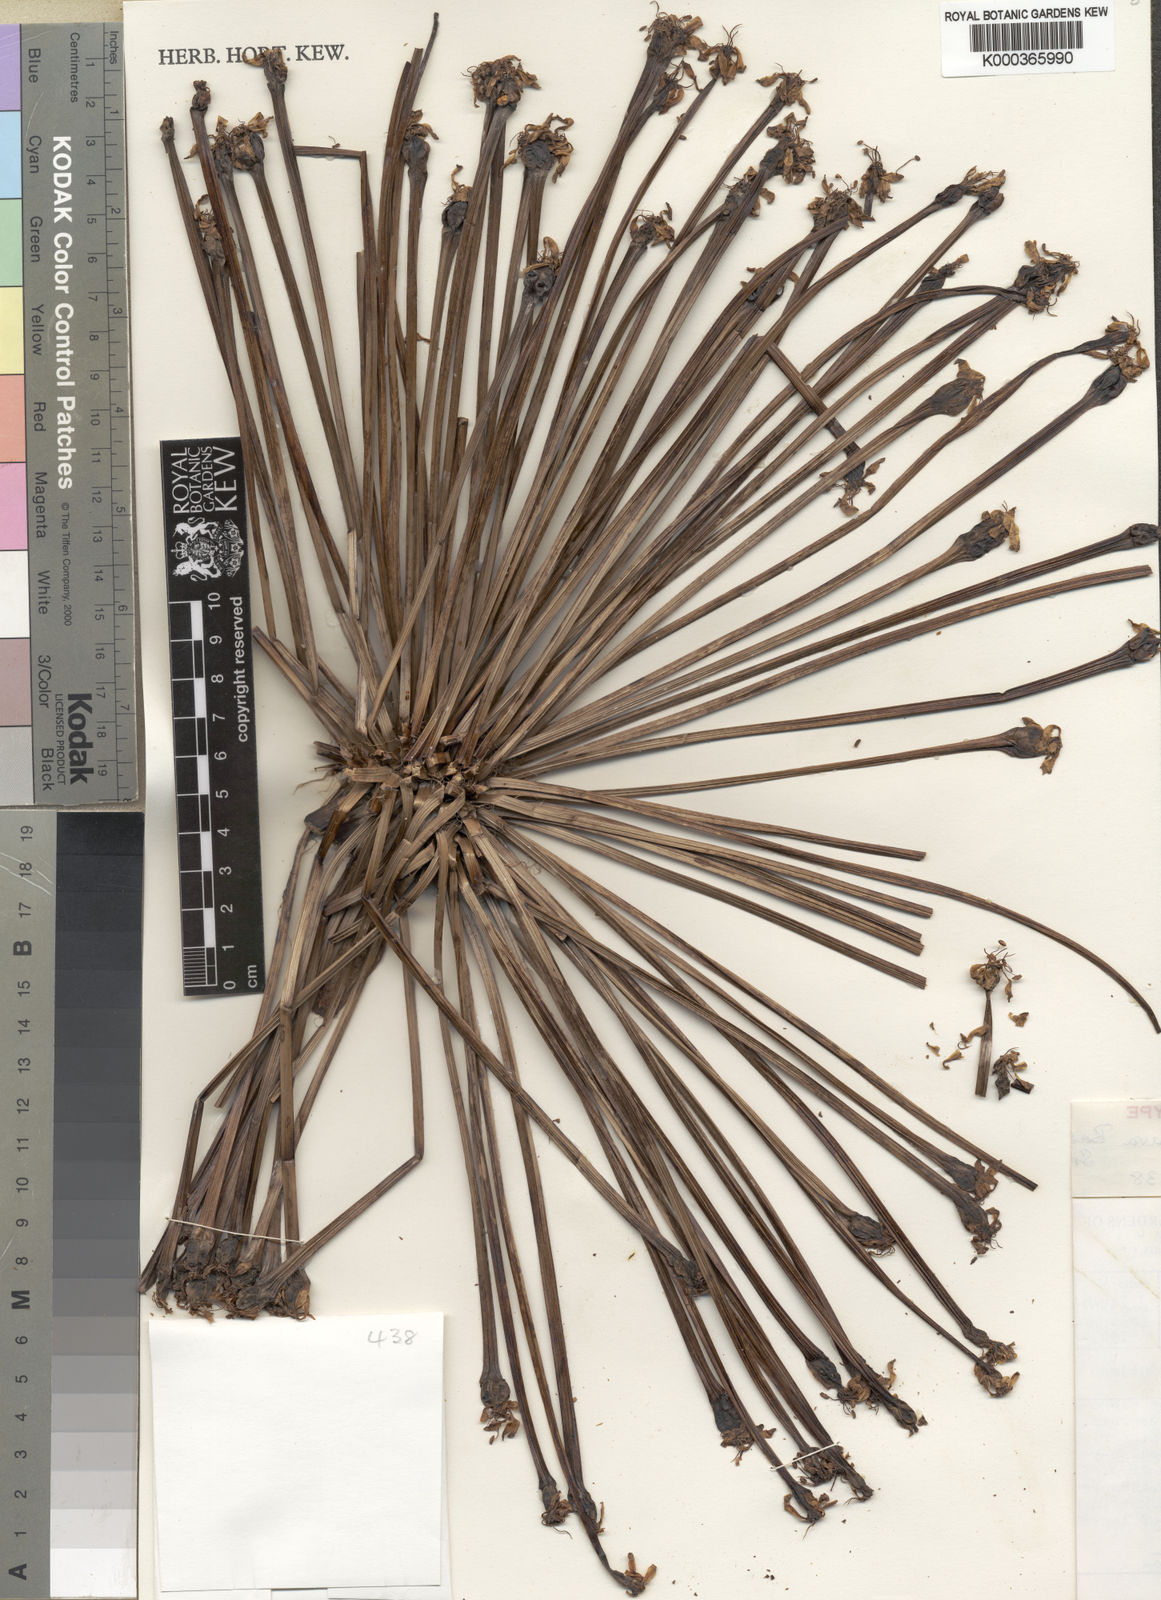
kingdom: Plantae
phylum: Tracheophyta
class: Liliopsida
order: Asparagales
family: Amaryllidaceae
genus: Crossyne
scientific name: Crossyne flava
